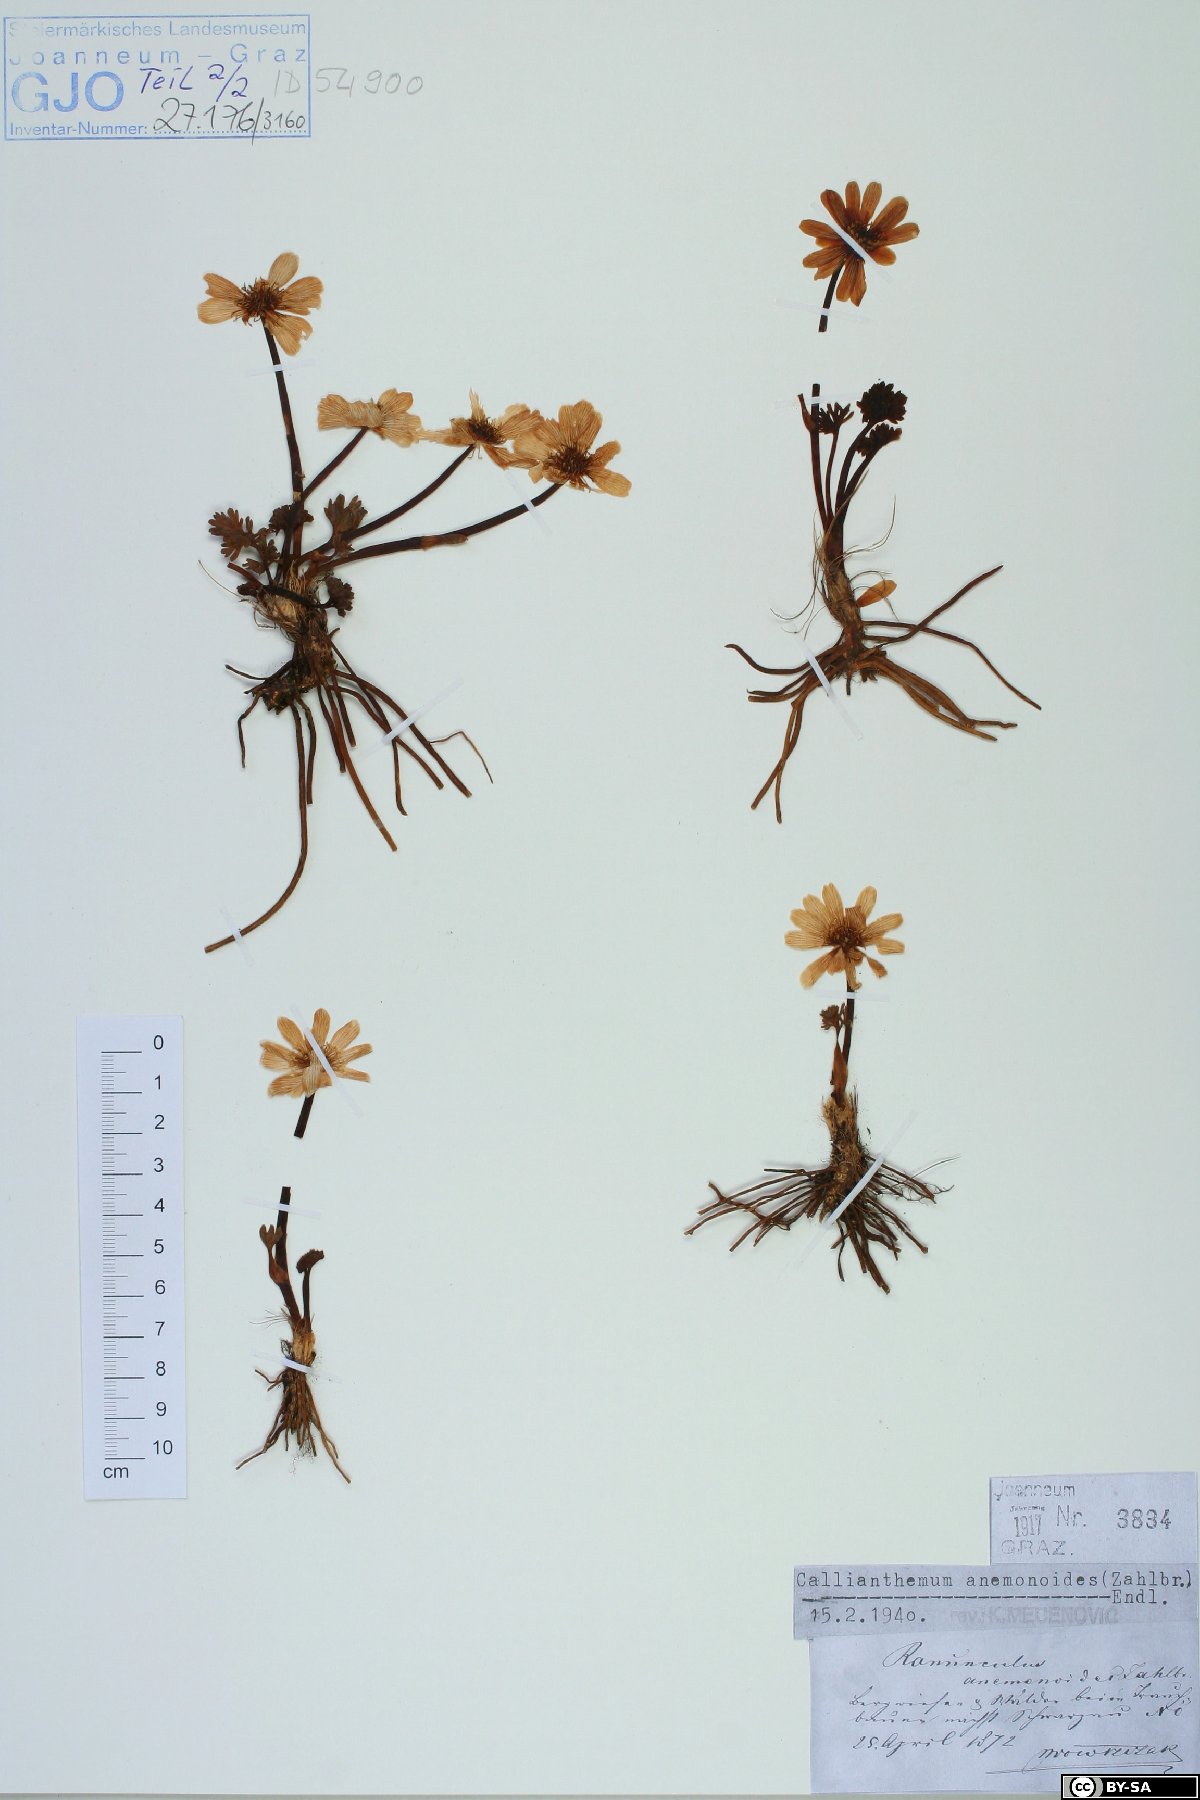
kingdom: Plantae
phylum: Tracheophyta
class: Magnoliopsida
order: Ranunculales
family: Ranunculaceae
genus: Callianthemum
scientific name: Callianthemum anemonoides
